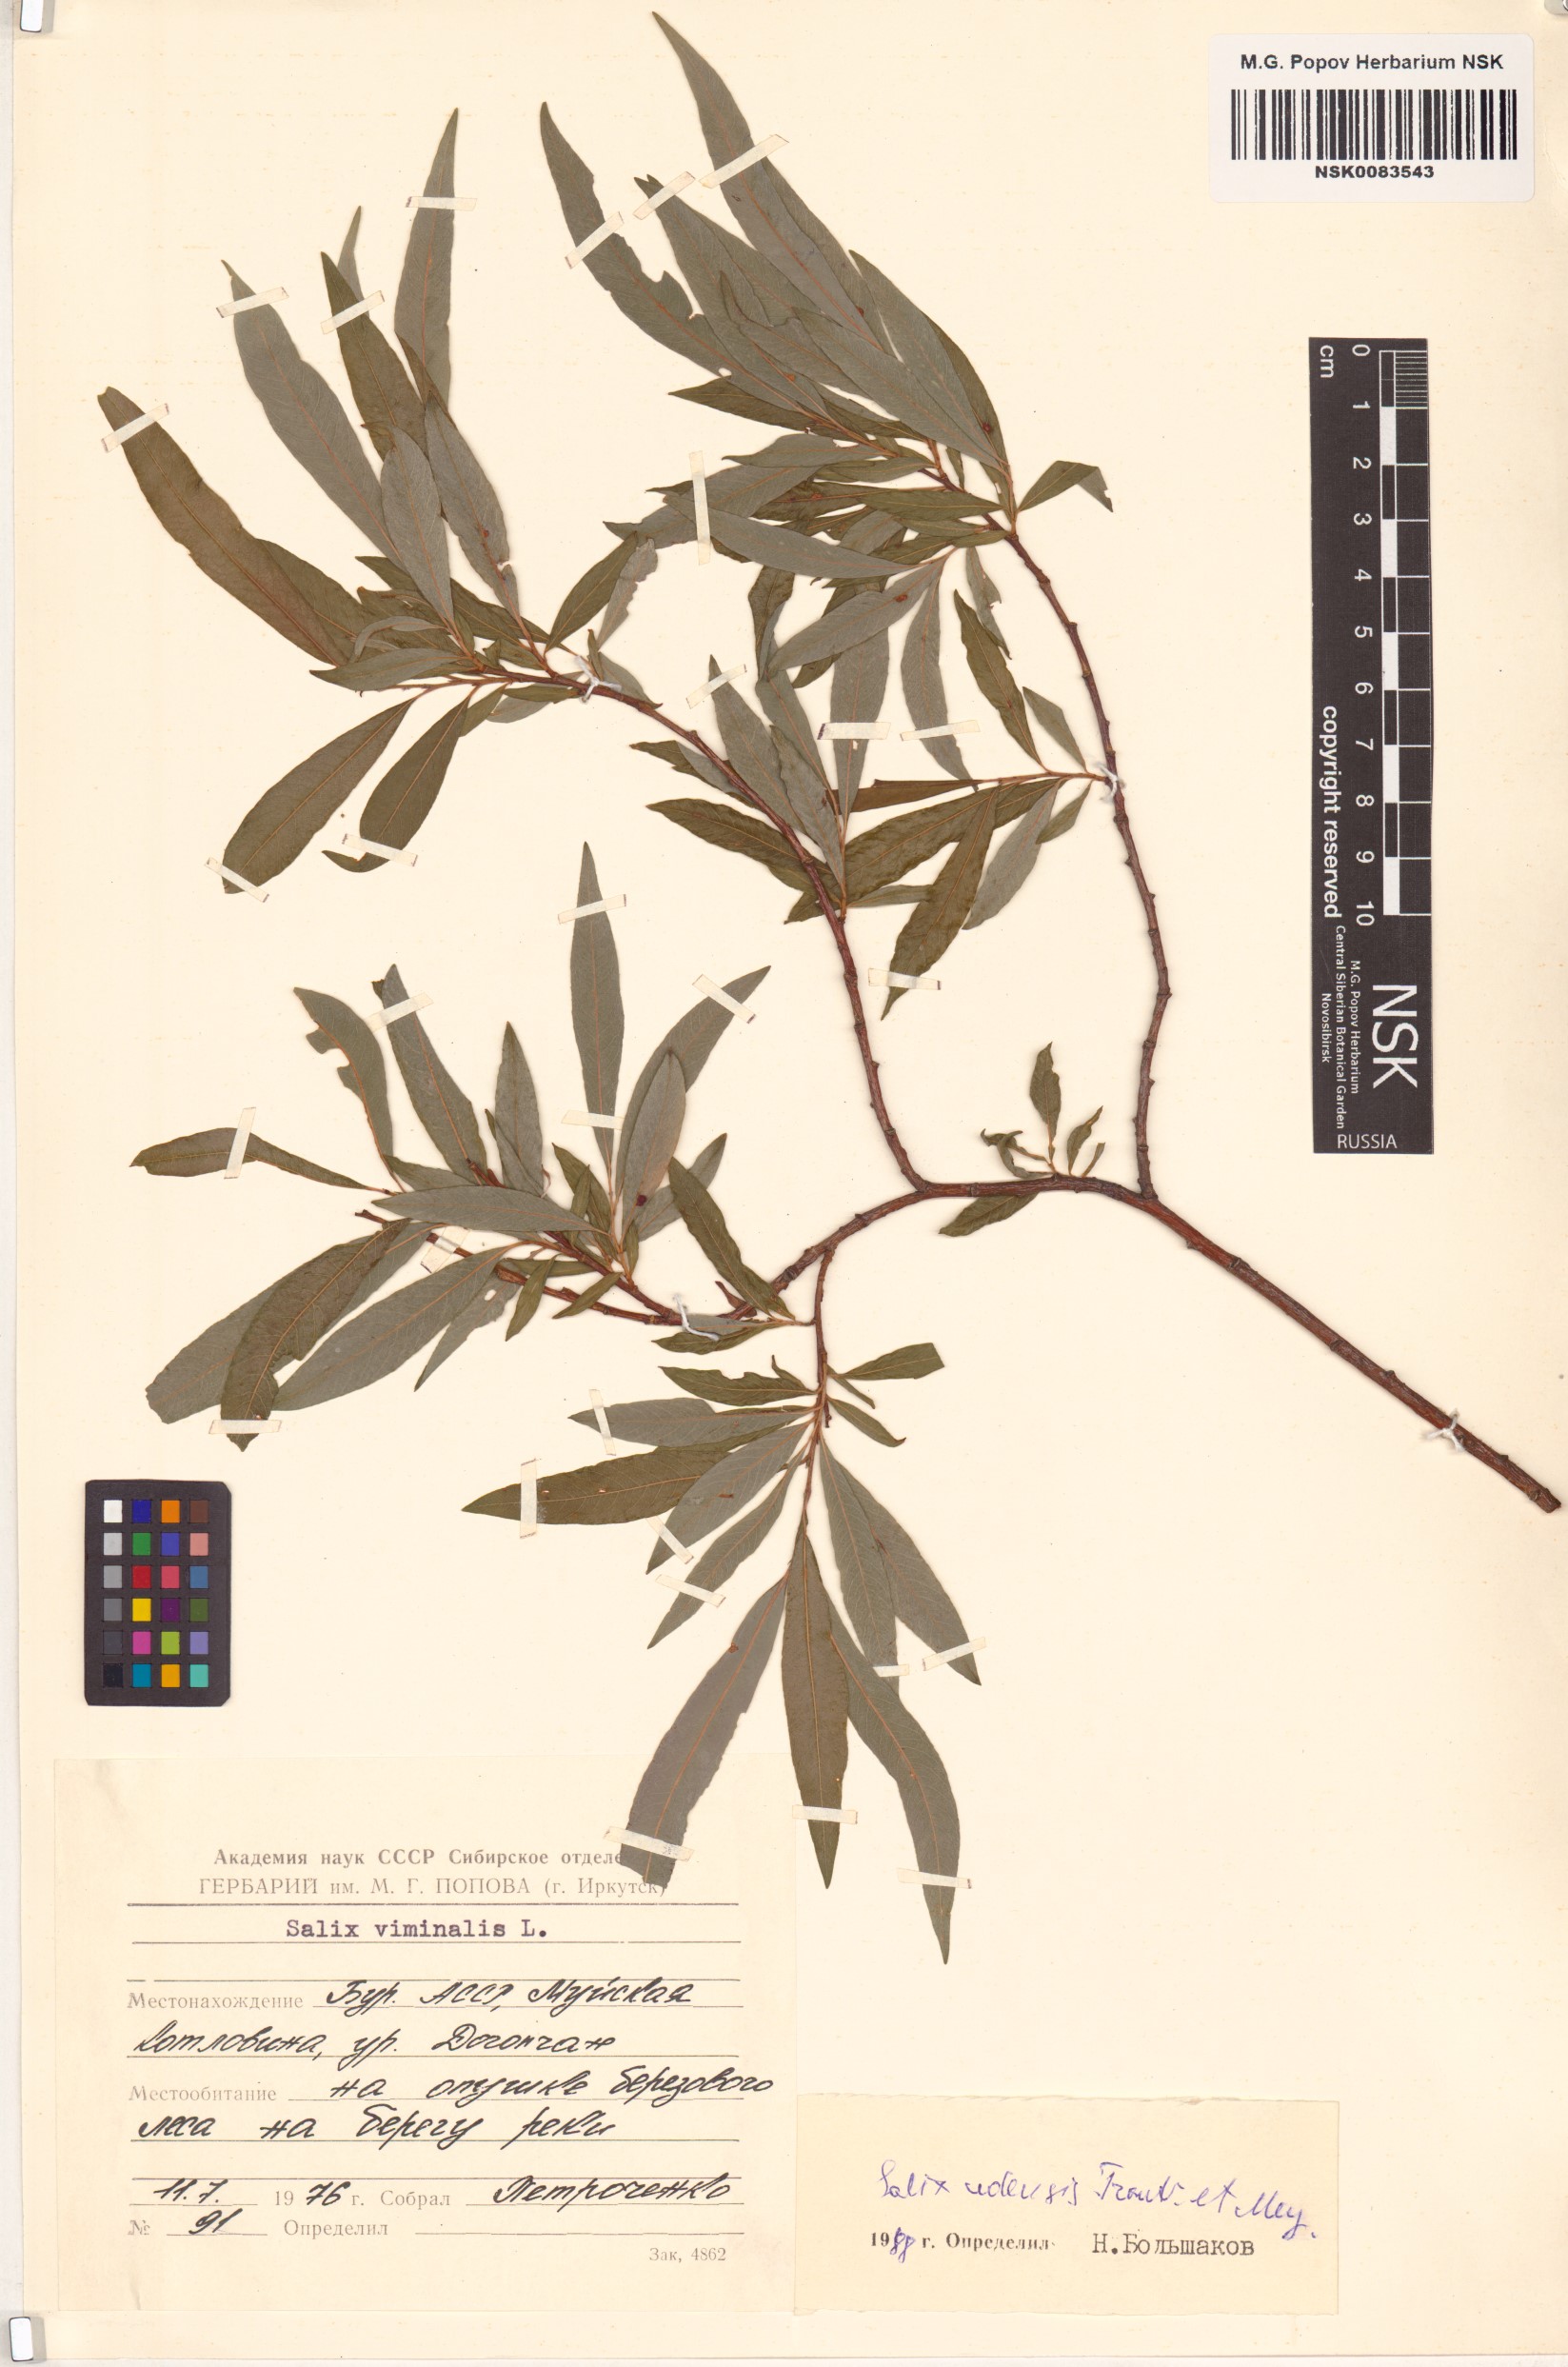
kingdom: Plantae
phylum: Tracheophyta
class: Magnoliopsida
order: Malpighiales
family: Salicaceae
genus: Salix
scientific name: Salix udensis
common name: Sachalin willow
